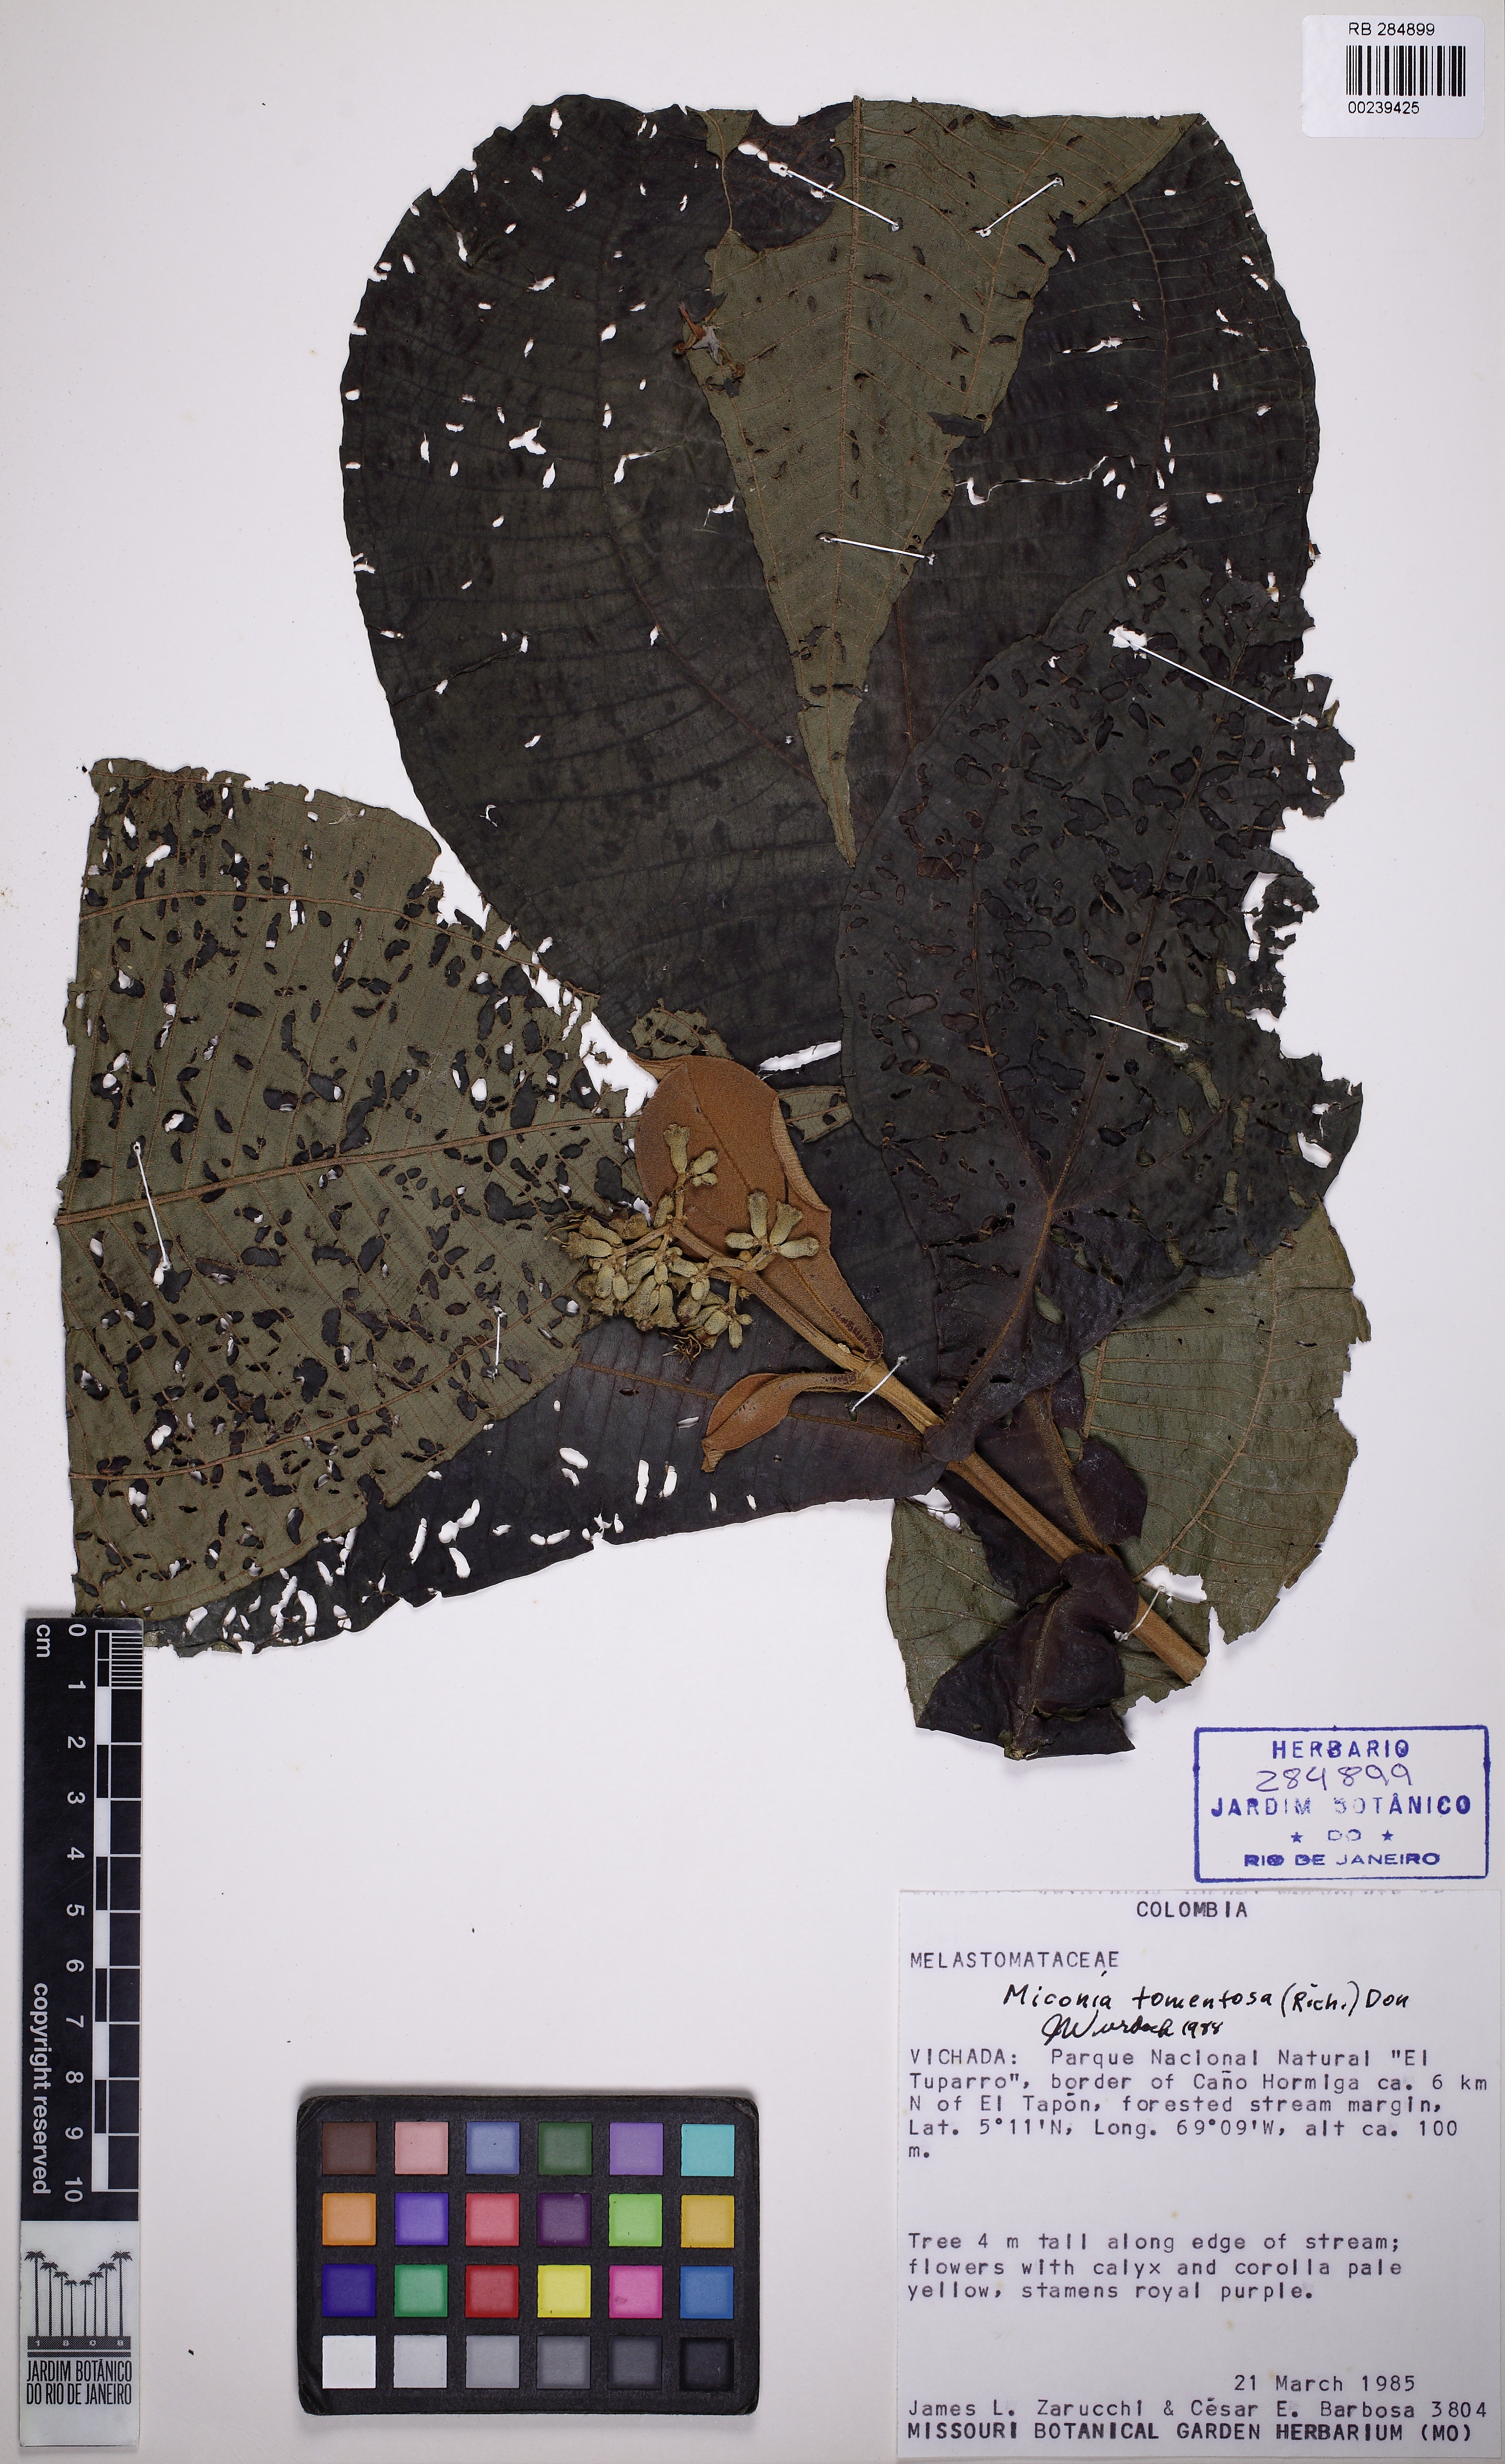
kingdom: Plantae
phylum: Tracheophyta
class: Magnoliopsida
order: Myrtales
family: Melastomataceae
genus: Miconia
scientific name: Miconia tomentosa
